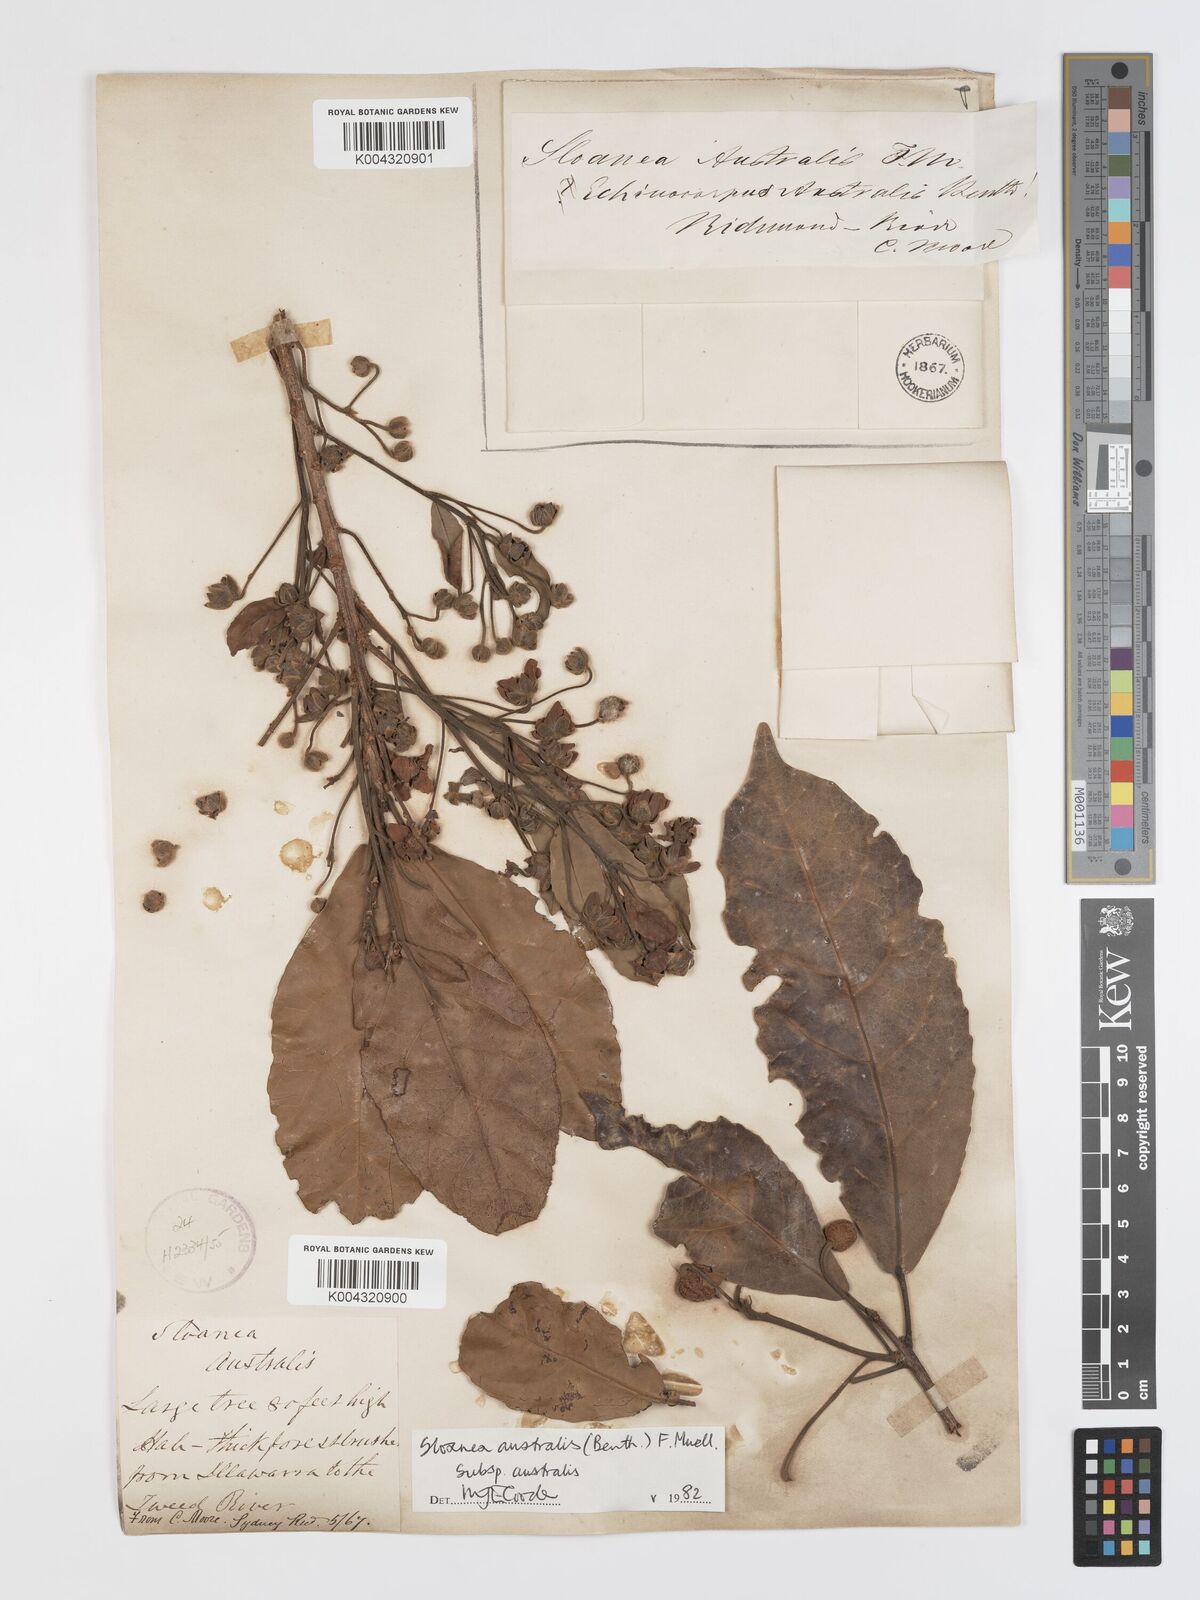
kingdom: Plantae
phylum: Tracheophyta
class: Magnoliopsida
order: Oxalidales
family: Elaeocarpaceae
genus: Sloanea
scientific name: Sloanea australis
